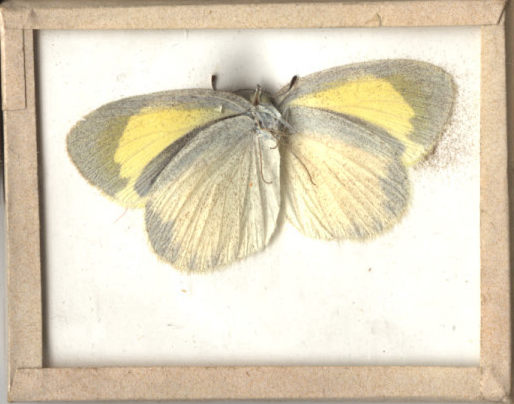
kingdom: Animalia
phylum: Arthropoda
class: Insecta
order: Lepidoptera
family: Pieridae
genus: Eurema
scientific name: Eurema daira
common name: Barred Yellow
